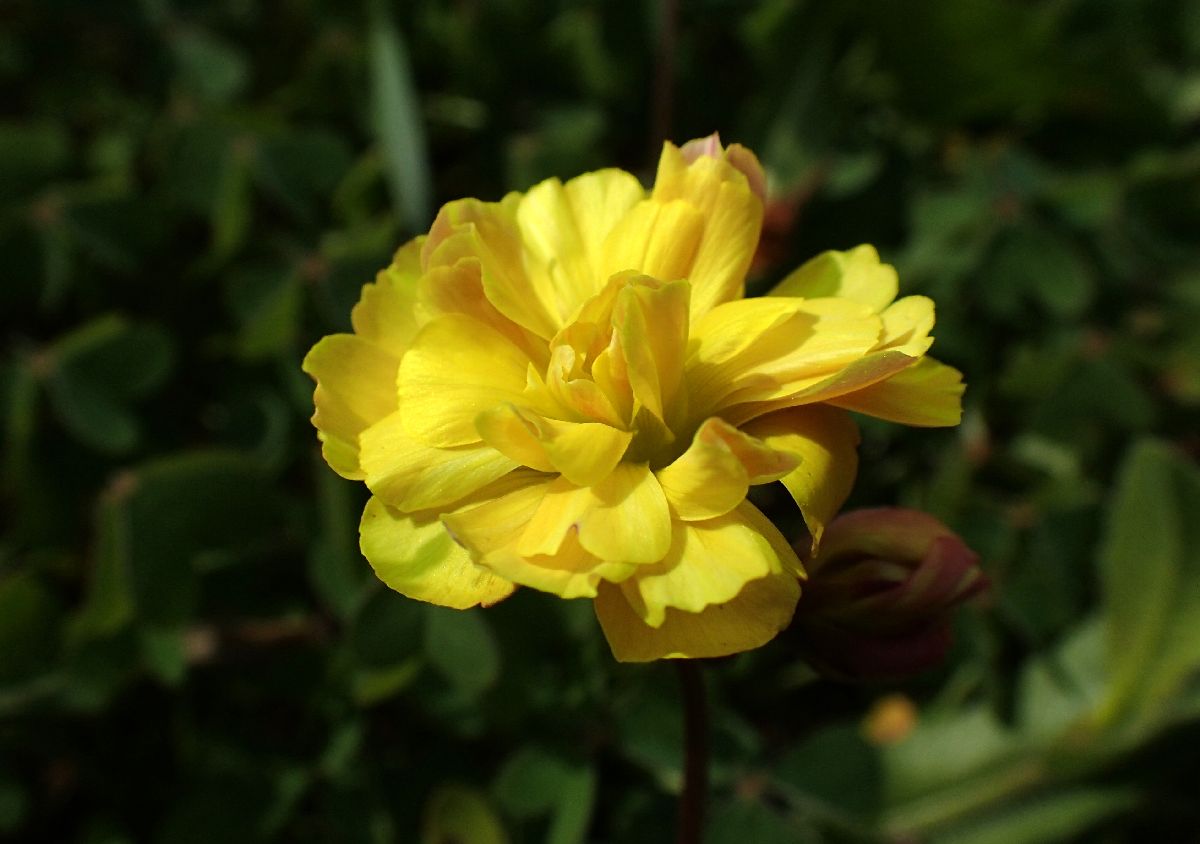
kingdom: Plantae
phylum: Tracheophyta
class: Magnoliopsida
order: Oxalidales
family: Oxalidaceae
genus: Oxalis
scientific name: Oxalis pes-caprae
